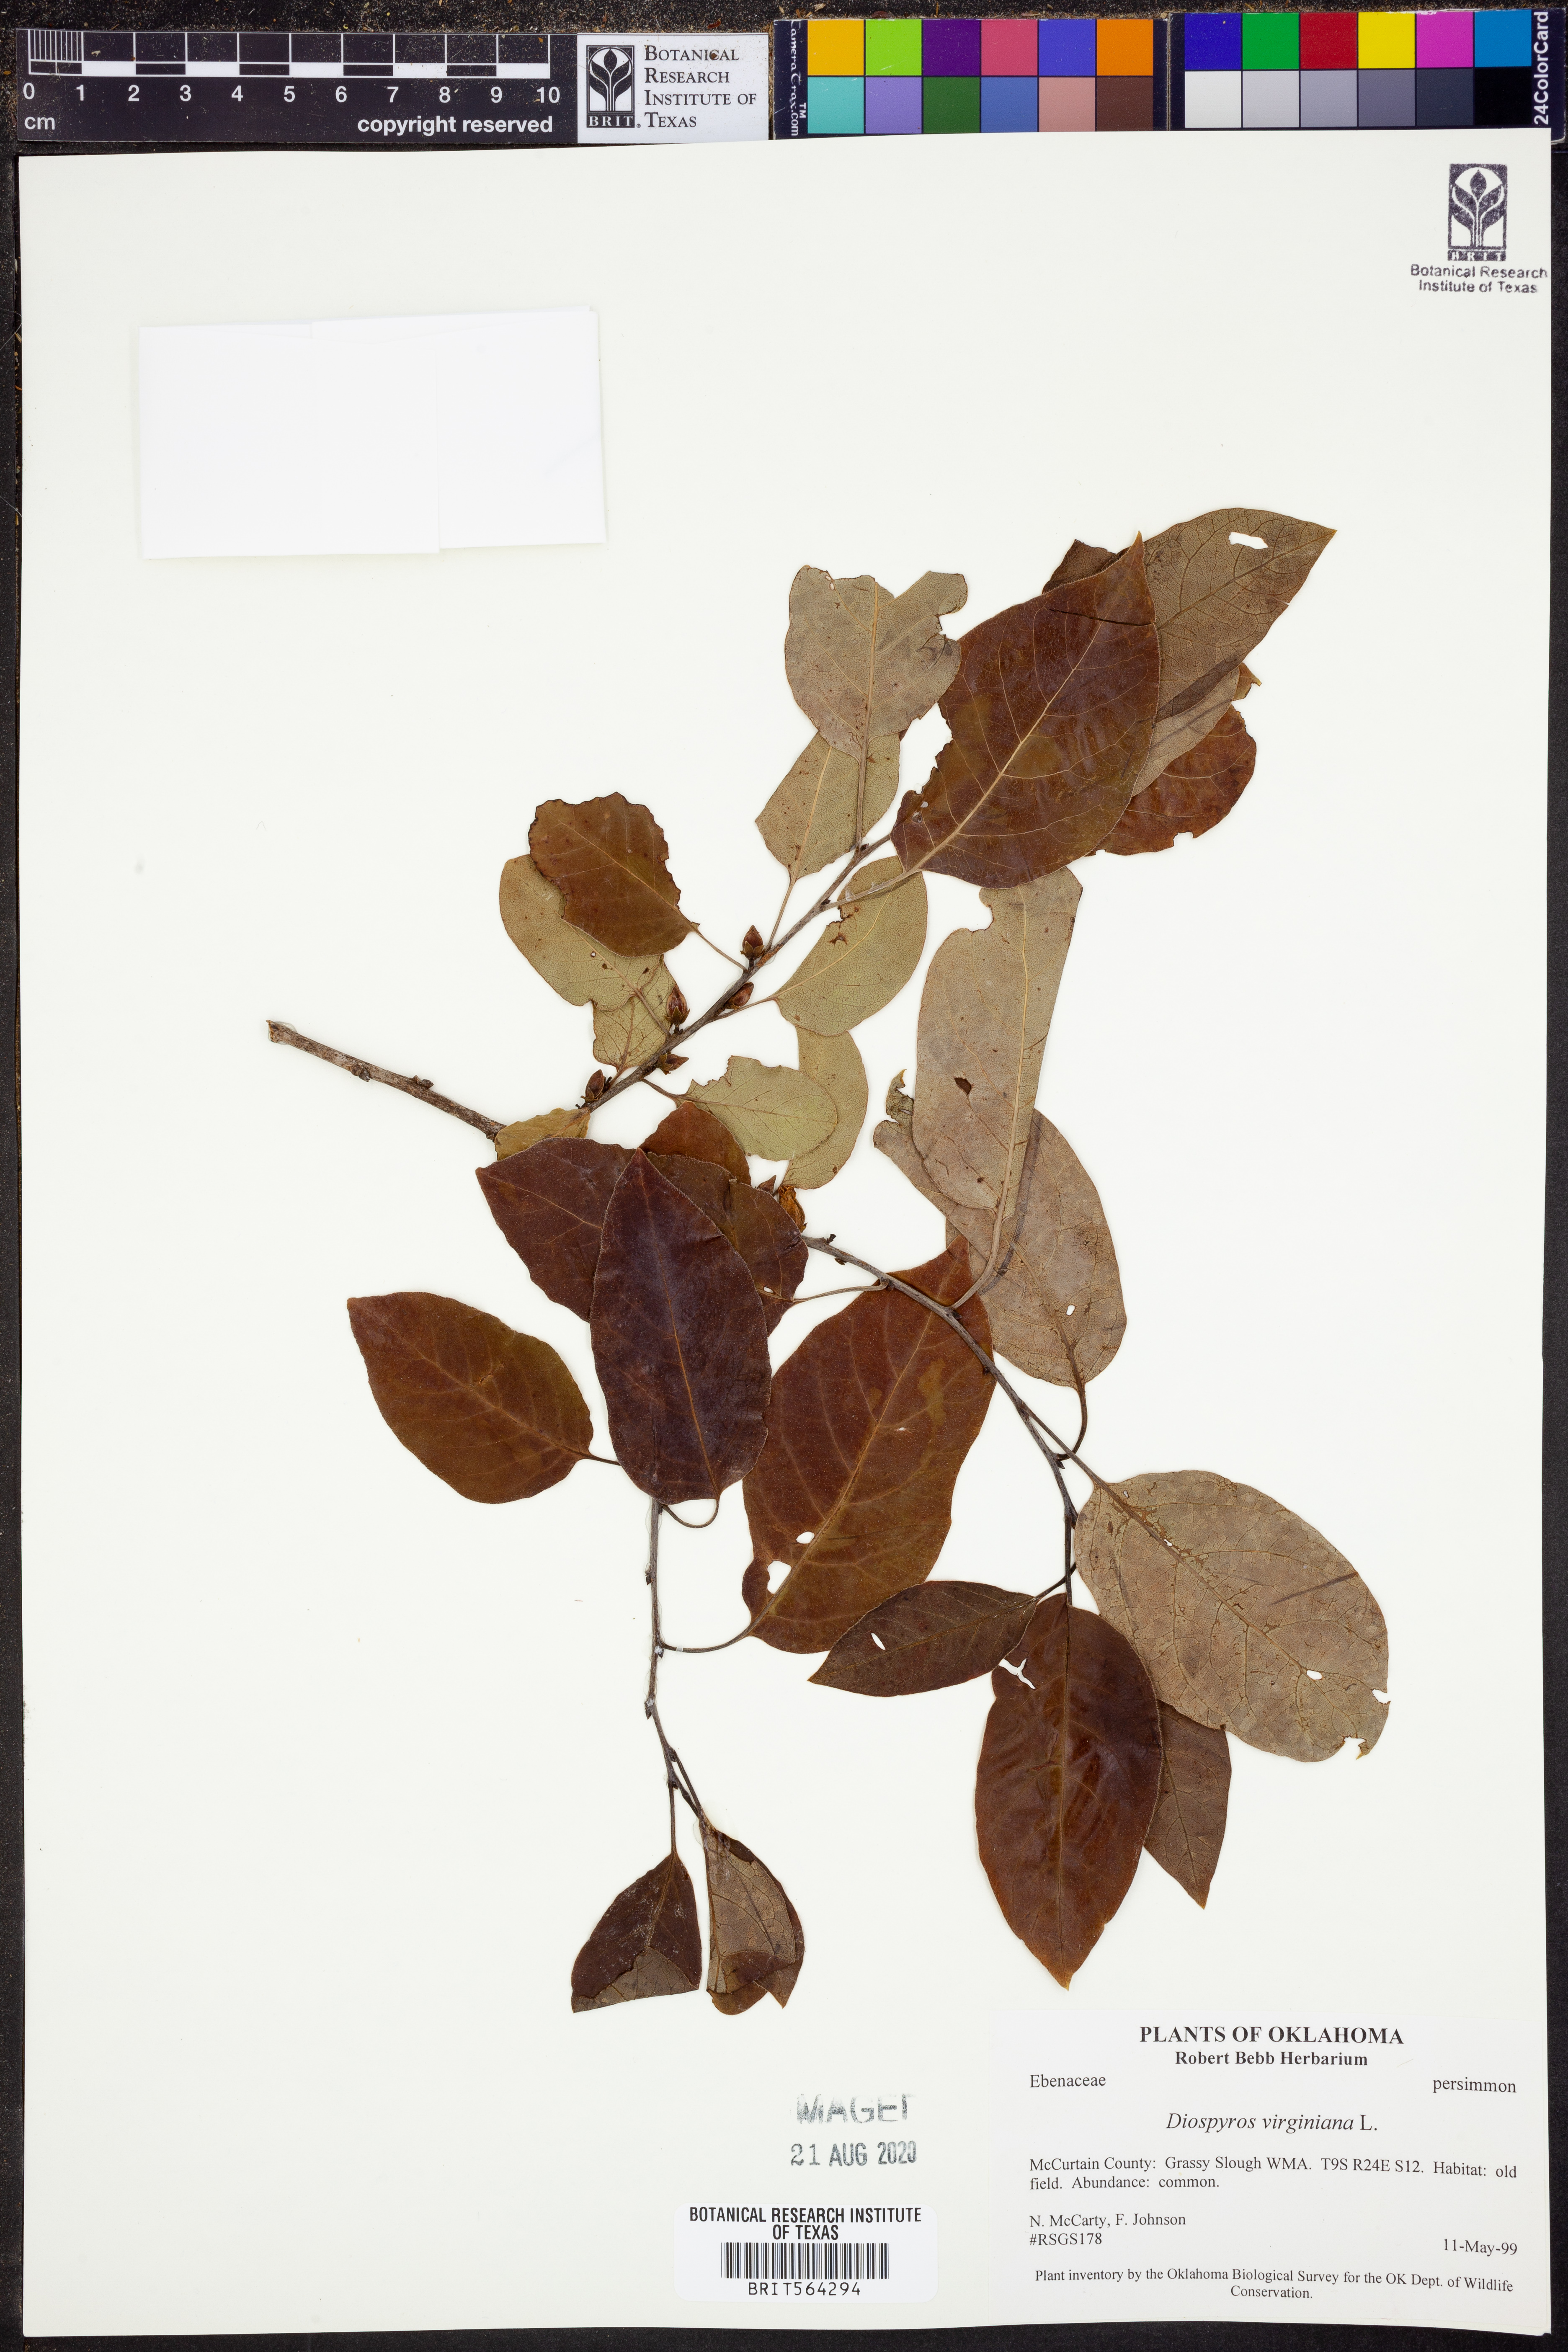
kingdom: Plantae
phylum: Tracheophyta
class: Magnoliopsida
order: Ericales
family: Ebenaceae
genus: Diospyros
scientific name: Diospyros virginiana
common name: Persimmon
